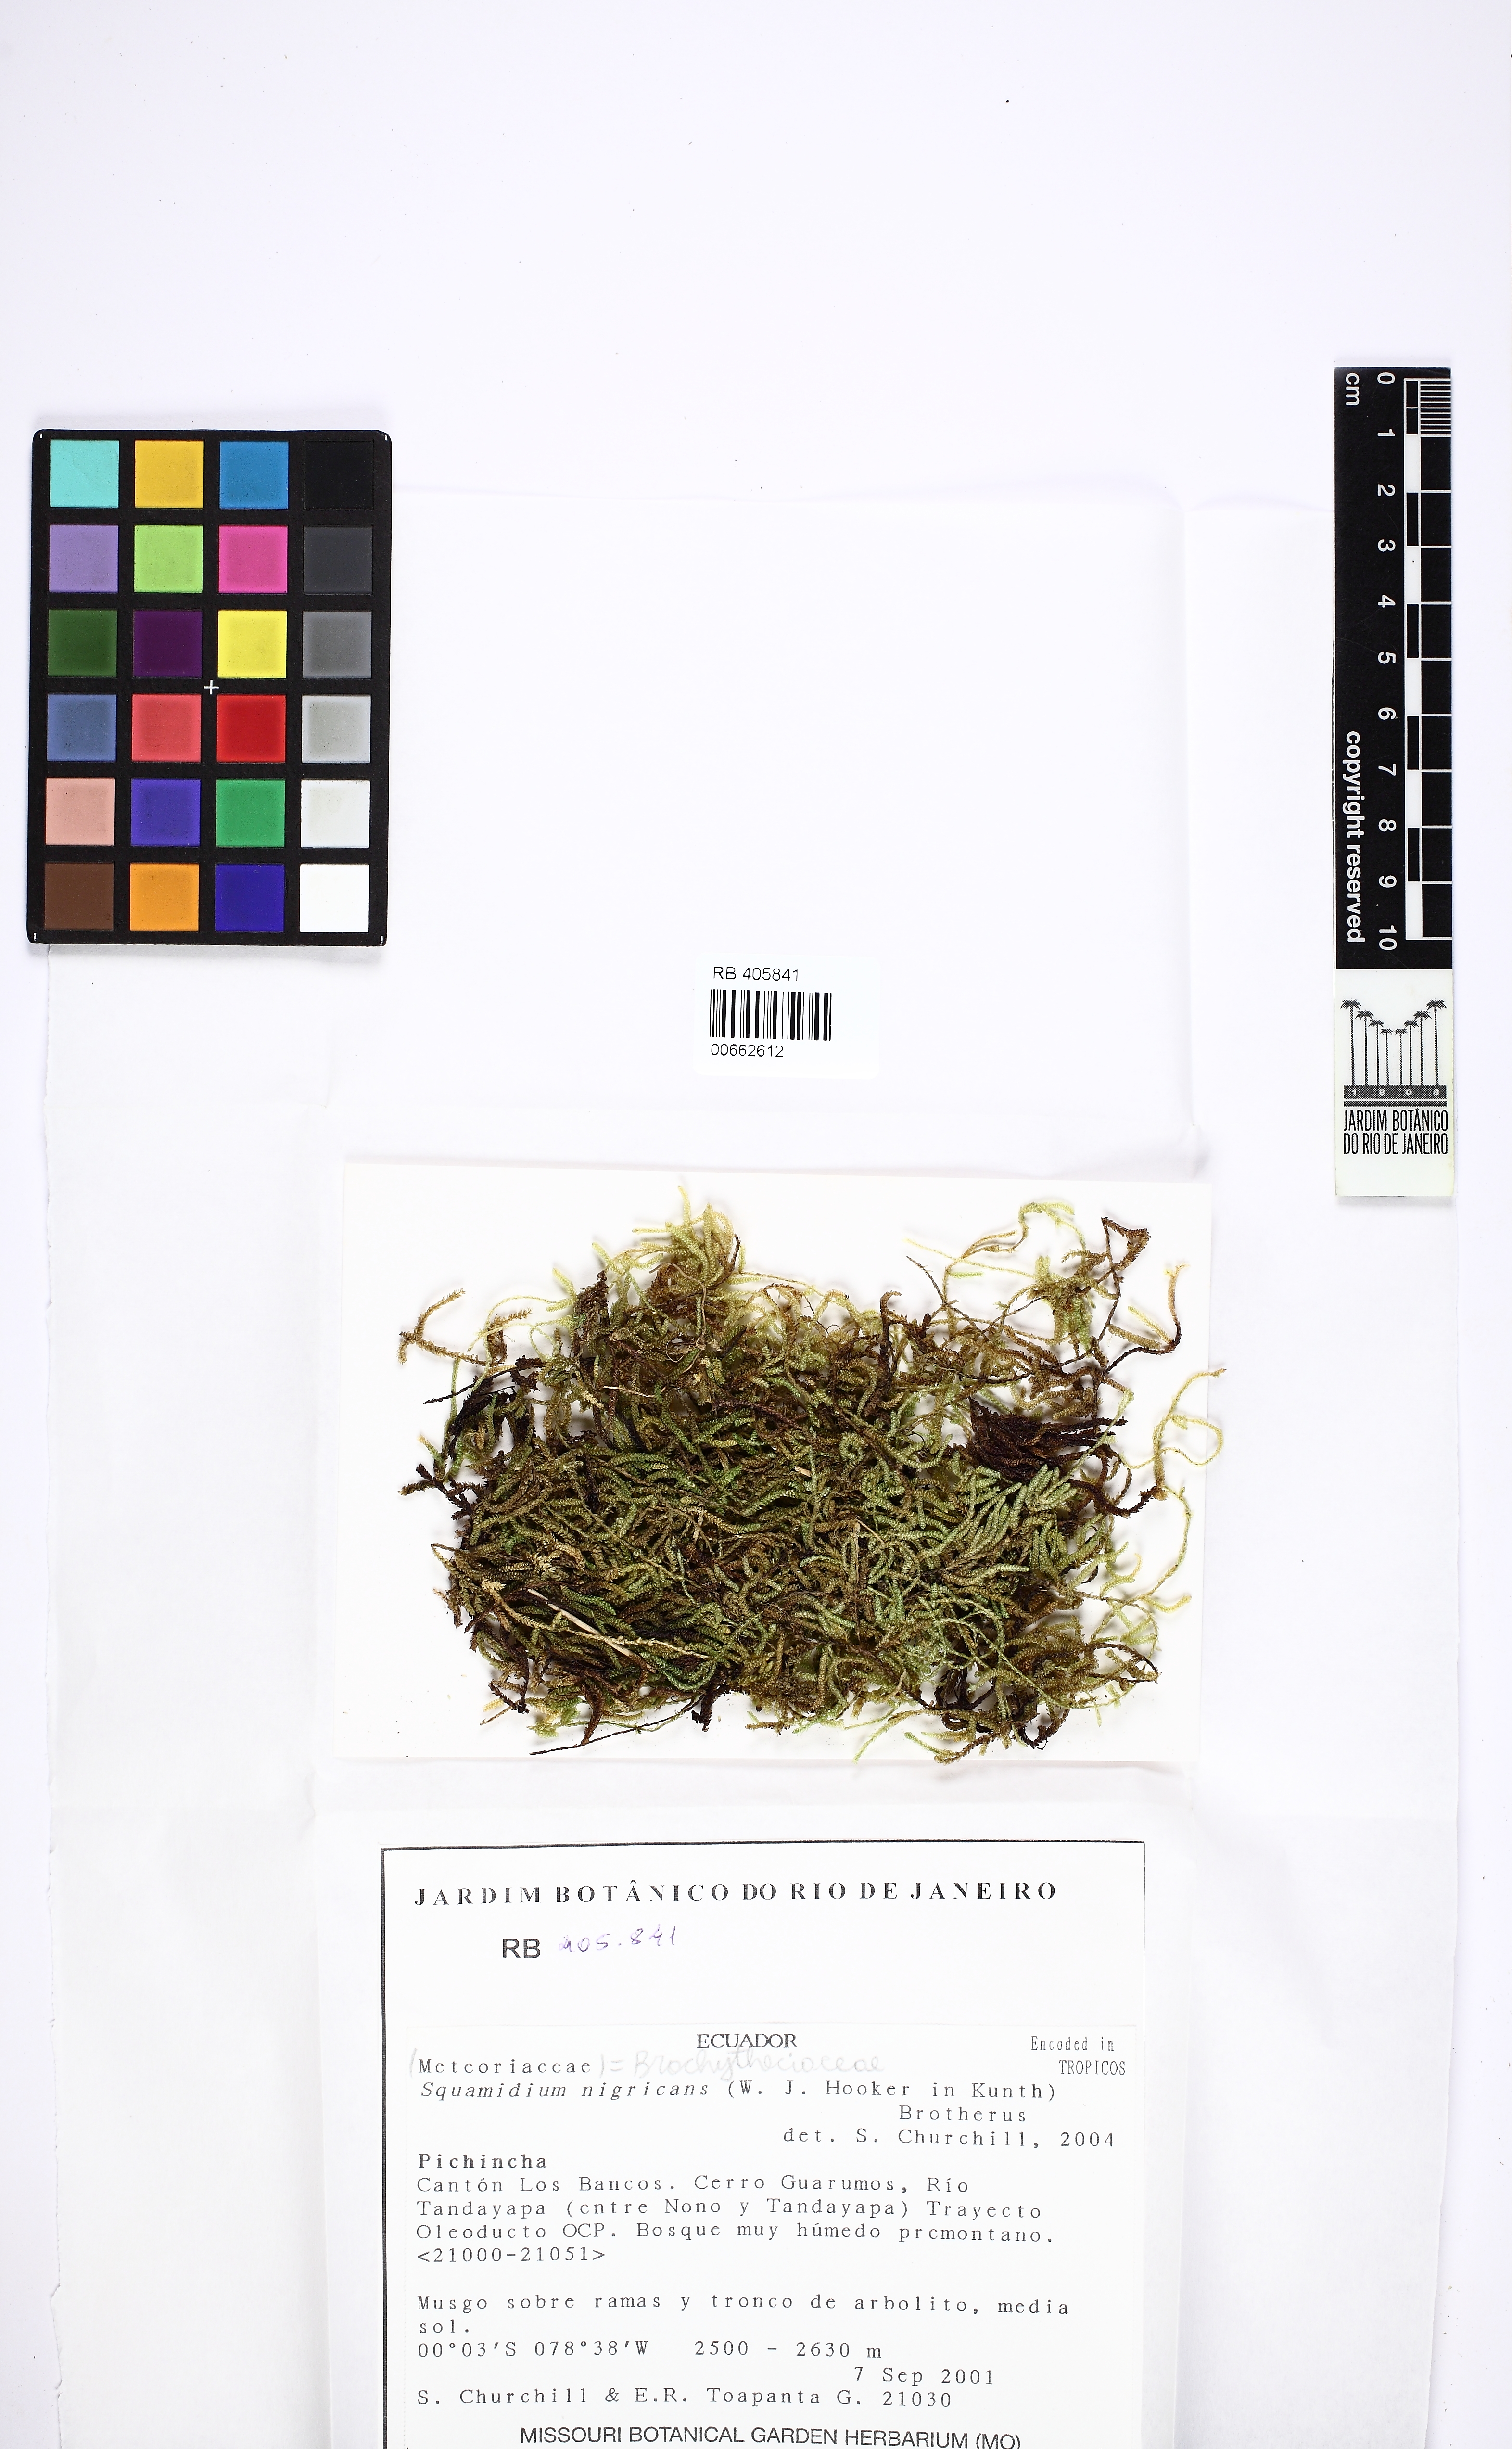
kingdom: Plantae
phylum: Bryophyta
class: Bryopsida
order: Hypnales
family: Brachytheciaceae
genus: Squamidium
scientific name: Squamidium nigricans
